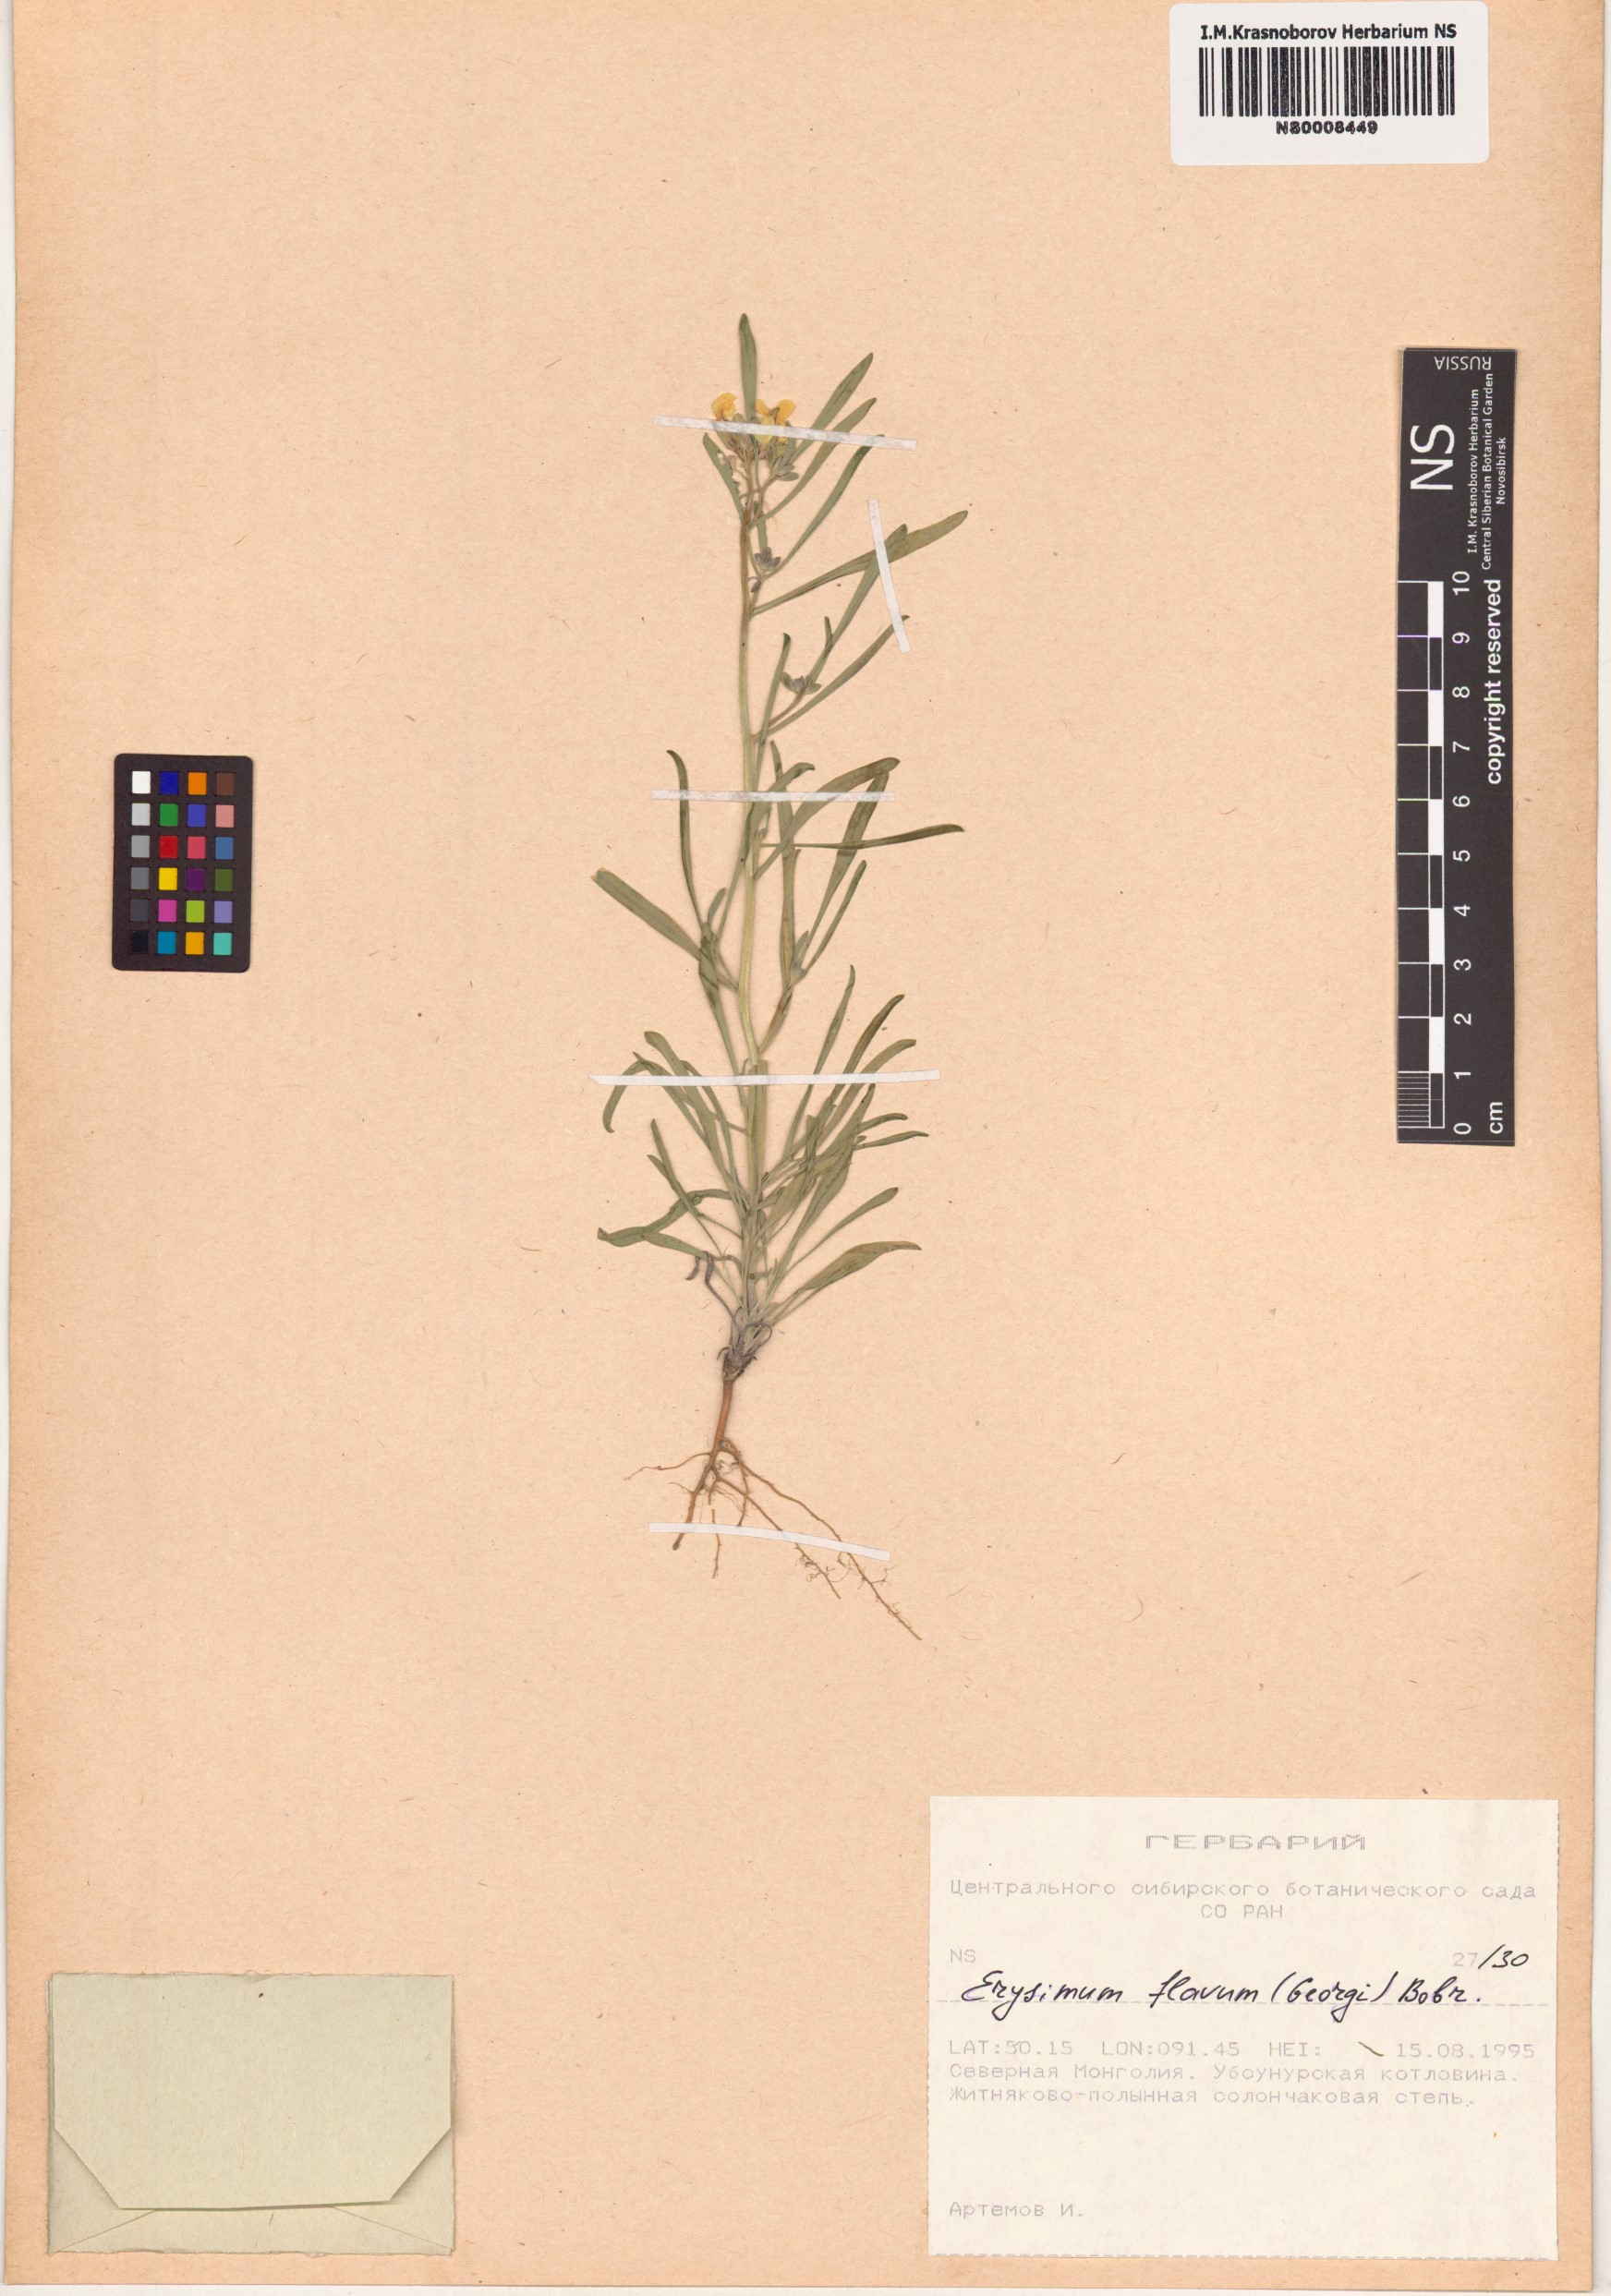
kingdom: Plantae
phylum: Tracheophyta
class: Magnoliopsida
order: Brassicales
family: Brassicaceae
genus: Erysimum
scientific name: Erysimum flavum
